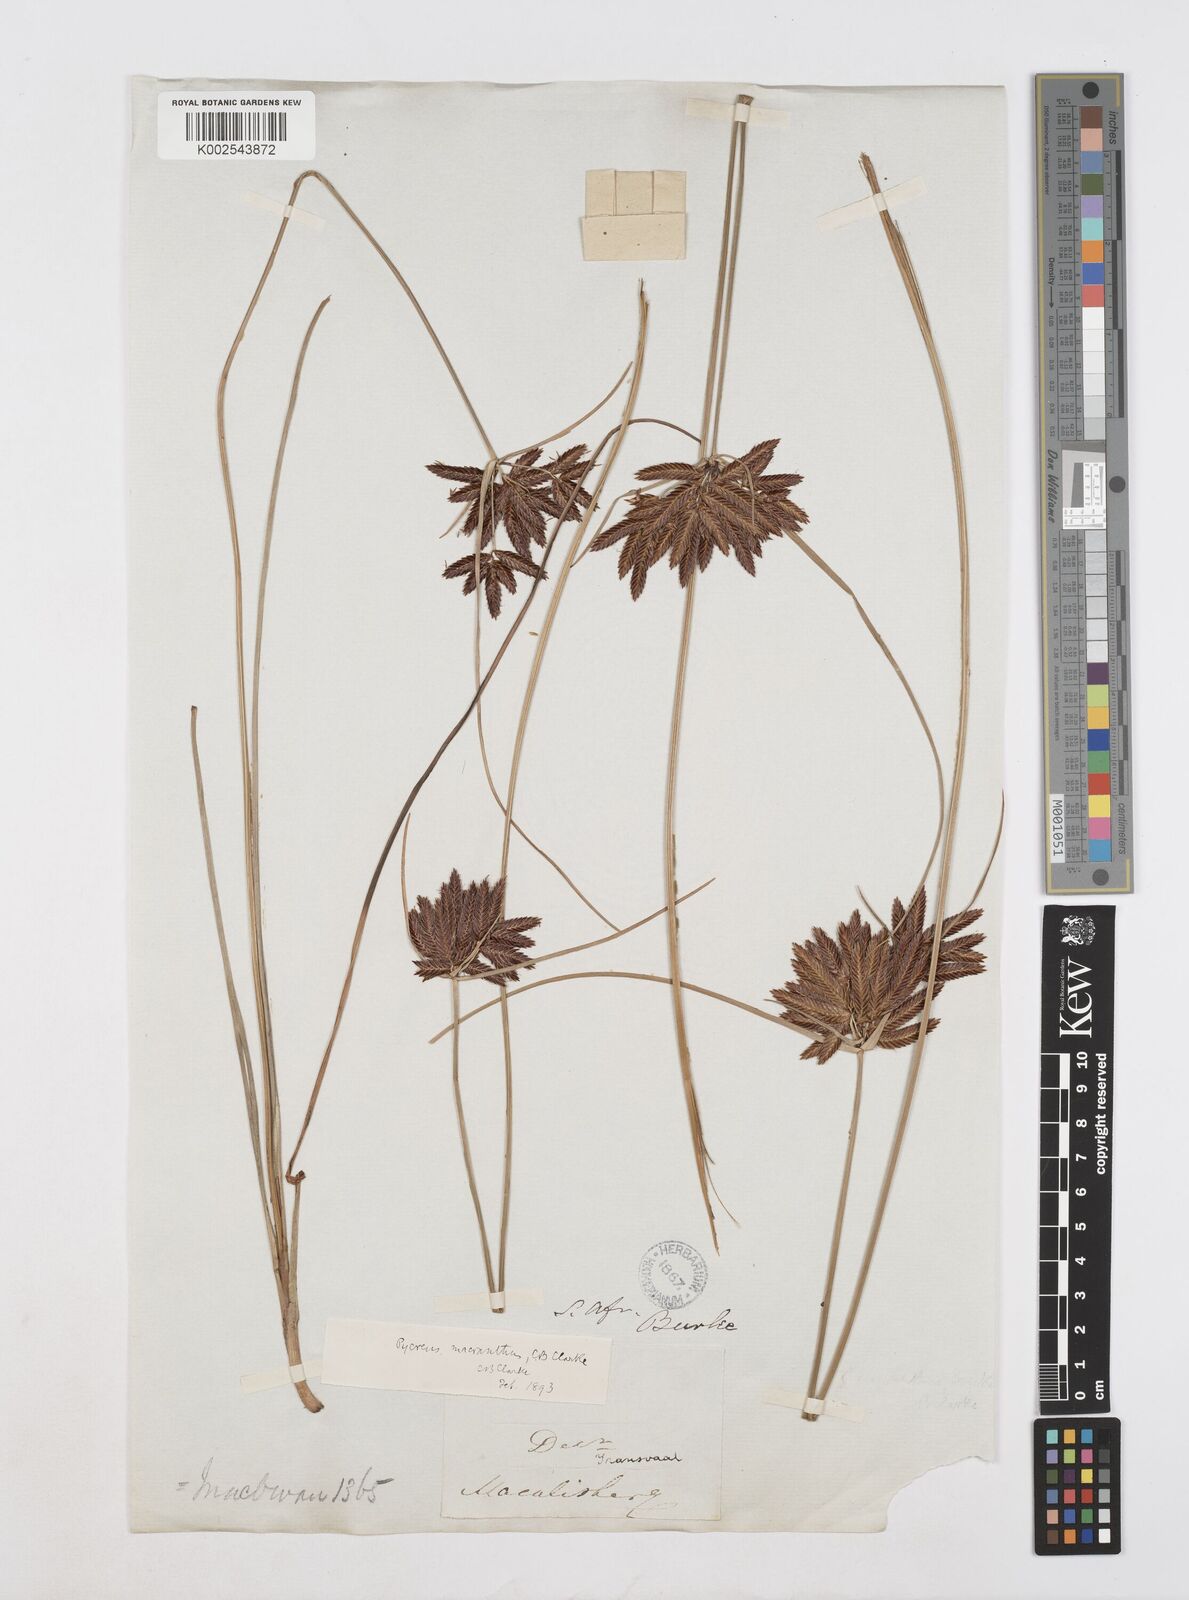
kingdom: Plantae
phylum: Tracheophyta
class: Liliopsida
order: Poales
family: Cyperaceae
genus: Cyperus
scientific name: Cyperus nigricans
